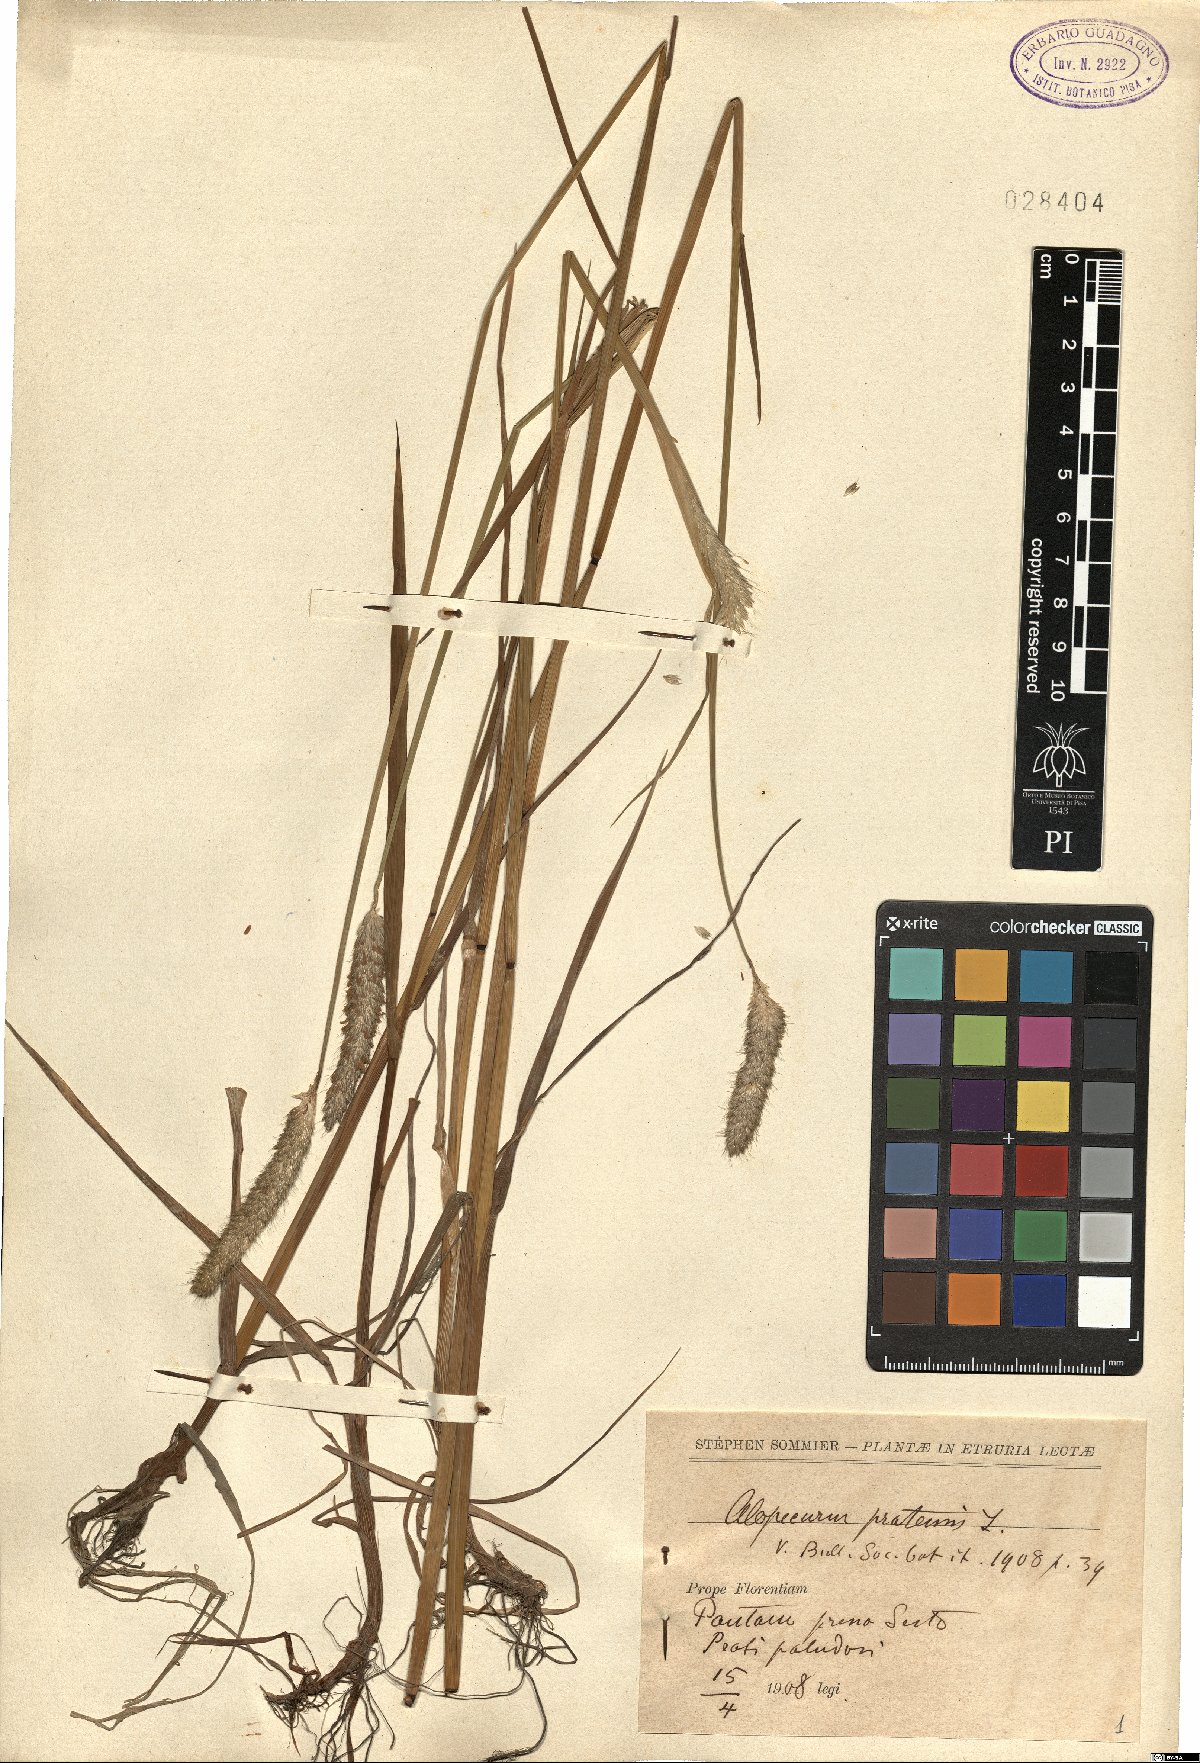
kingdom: Plantae
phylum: Tracheophyta
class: Liliopsida
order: Poales
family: Poaceae
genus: Alopecurus
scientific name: Alopecurus pratensis
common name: Meadow foxtail
